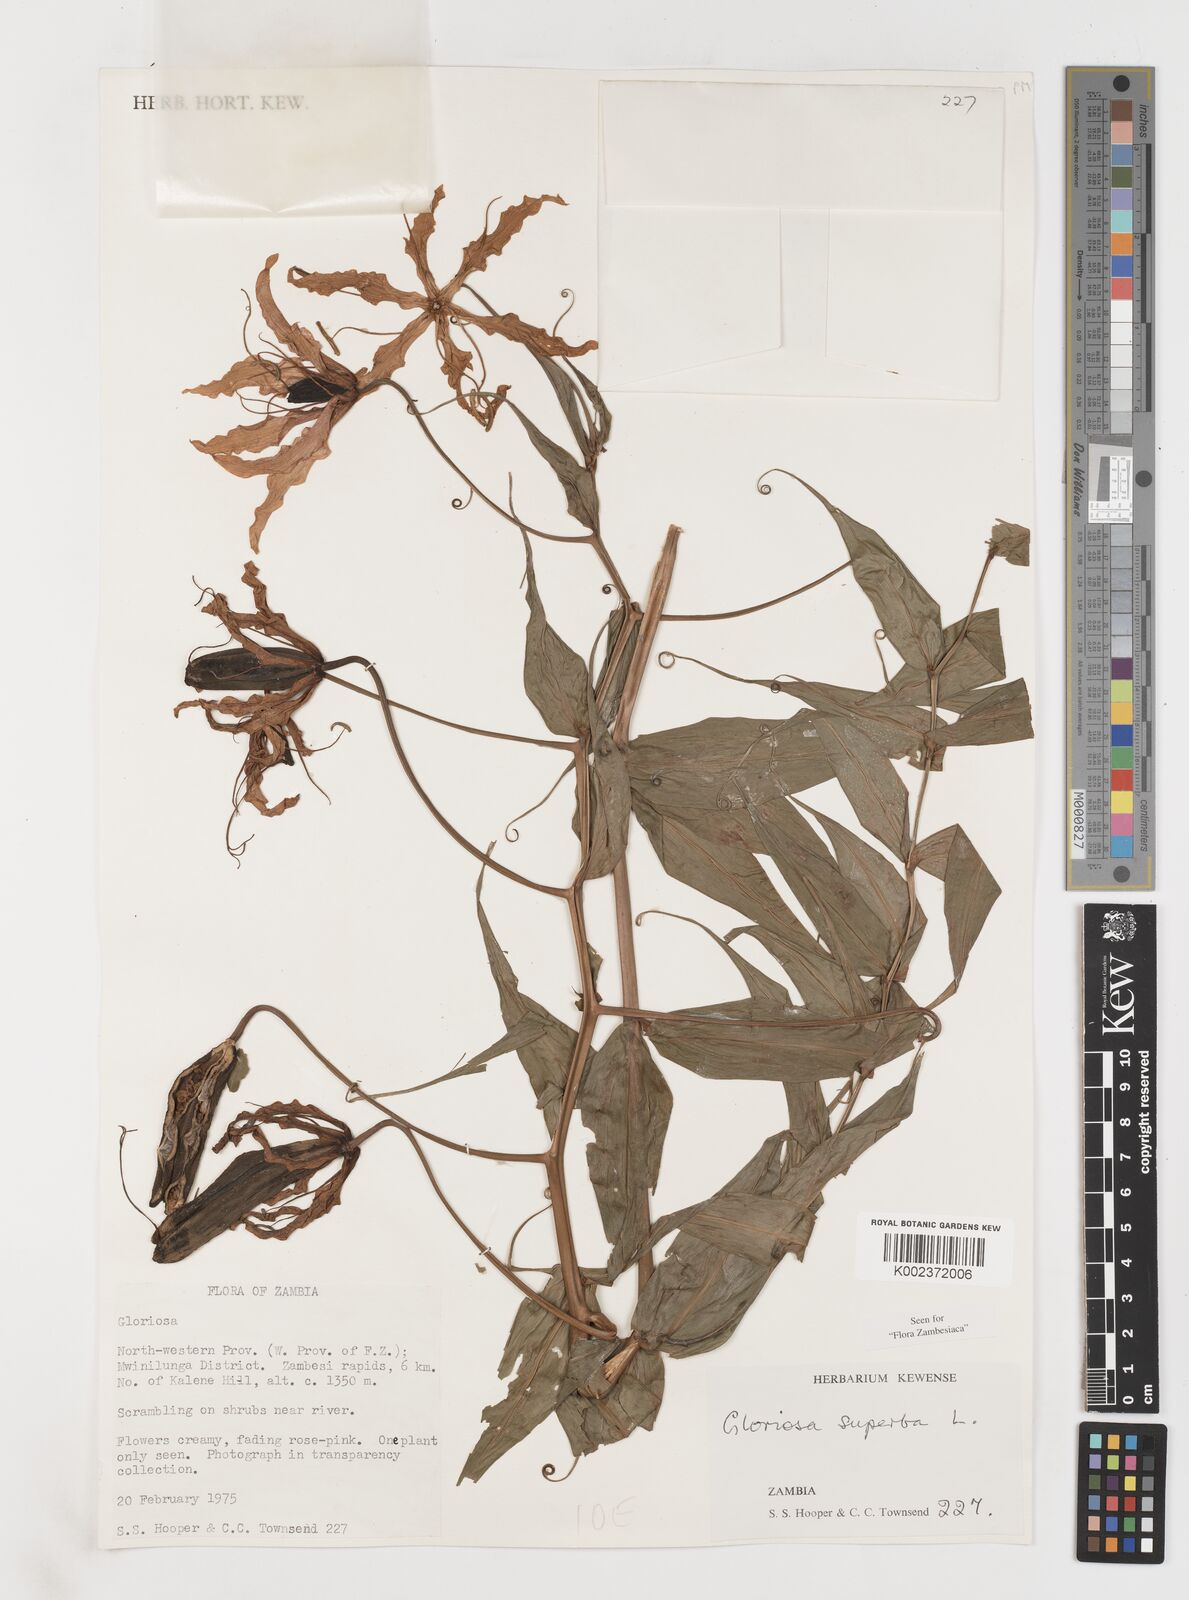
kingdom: Plantae
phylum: Tracheophyta
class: Liliopsida
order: Liliales
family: Colchicaceae
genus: Gloriosa
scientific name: Gloriosa superba
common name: Flame lily
